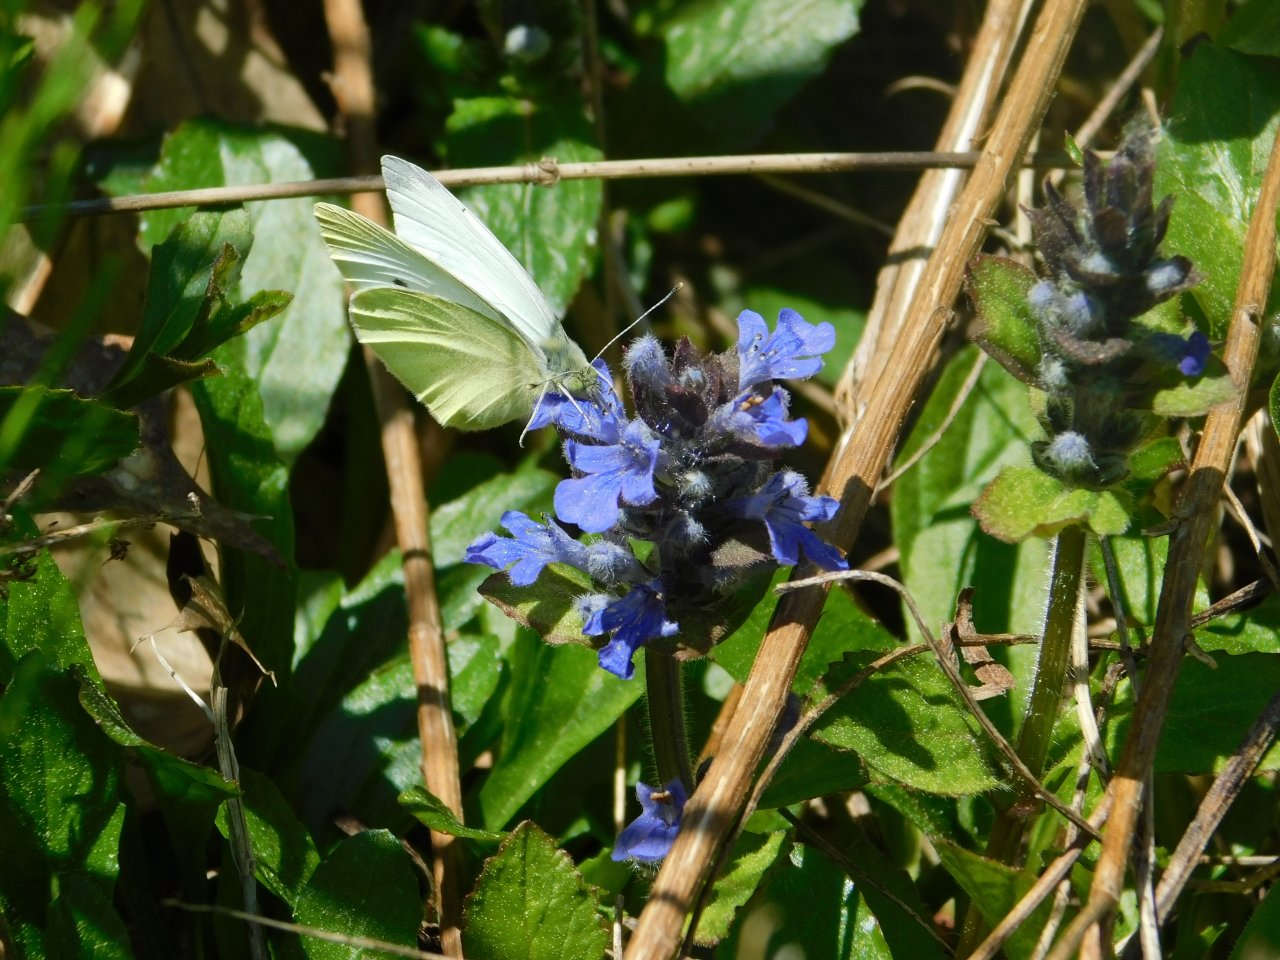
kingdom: Animalia
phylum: Arthropoda
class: Insecta
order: Lepidoptera
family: Pieridae
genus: Pieris
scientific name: Pieris rapae
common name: Cabbage White
